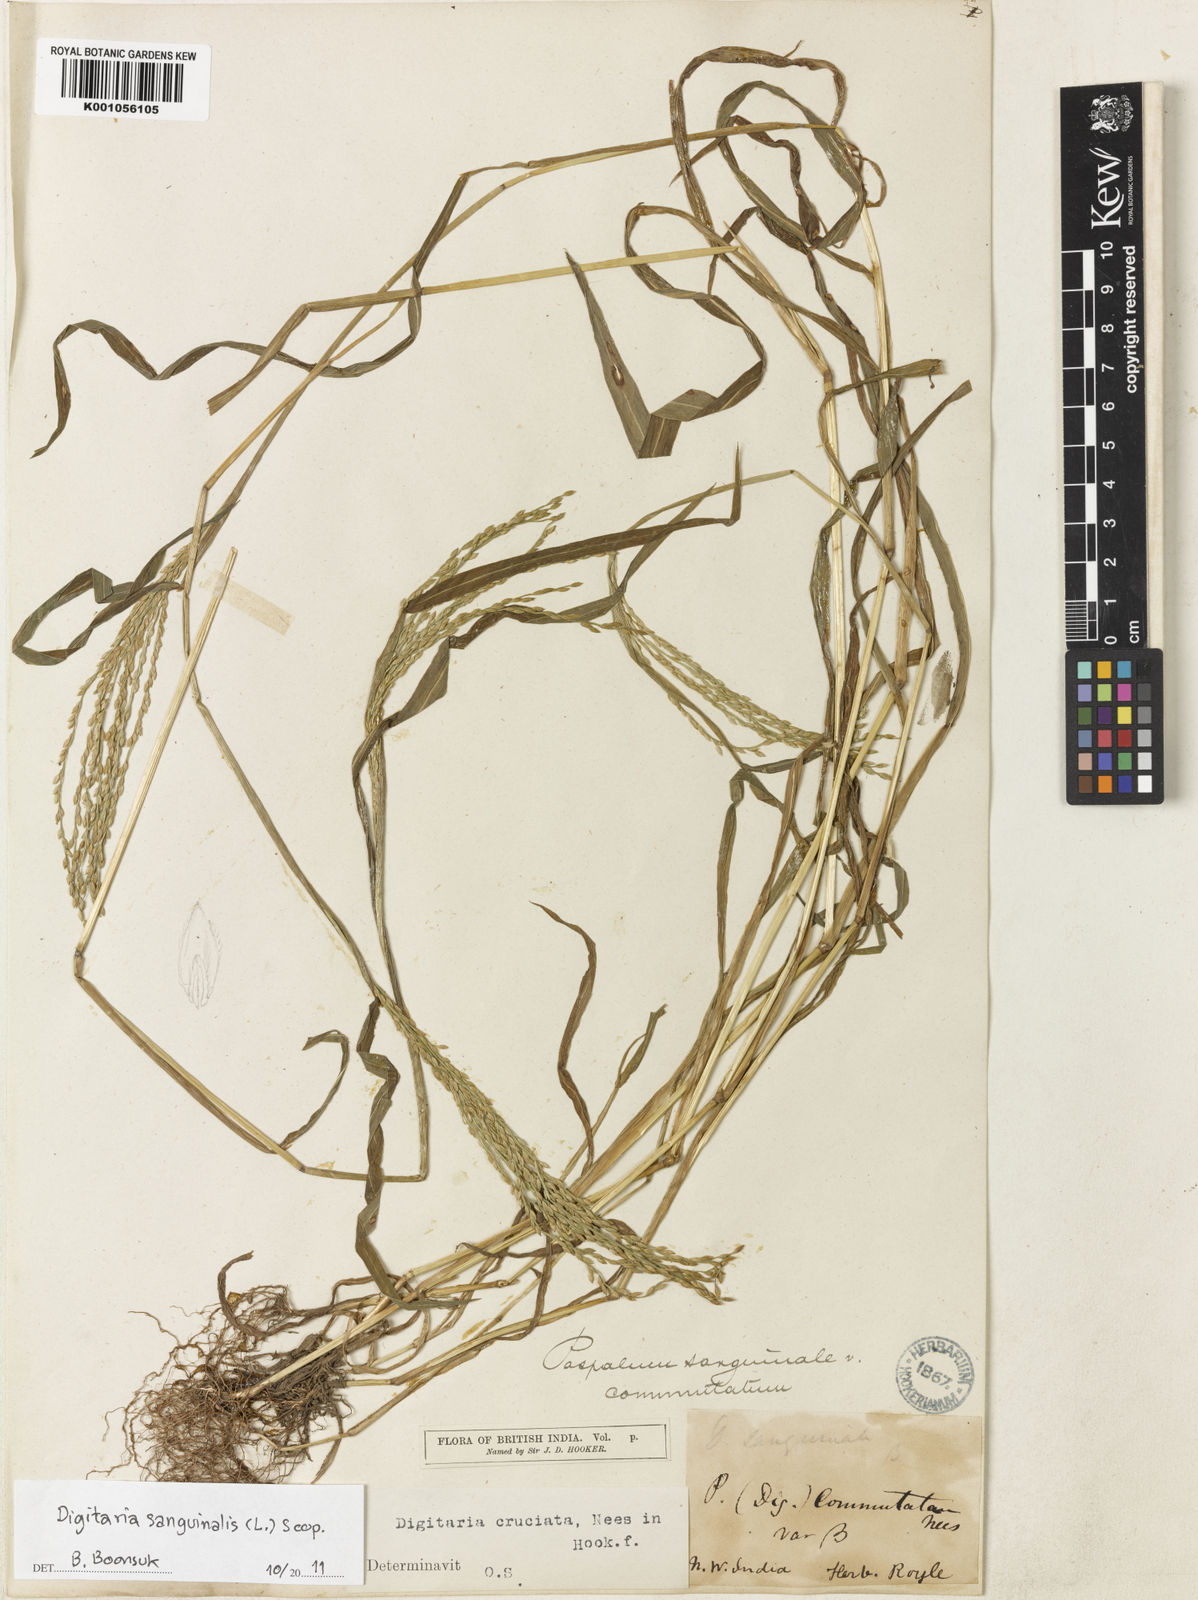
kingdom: Plantae
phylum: Tracheophyta
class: Liliopsida
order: Poales
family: Poaceae
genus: Digitaria
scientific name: Digitaria sanguinalis
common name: Hairy crabgrass
